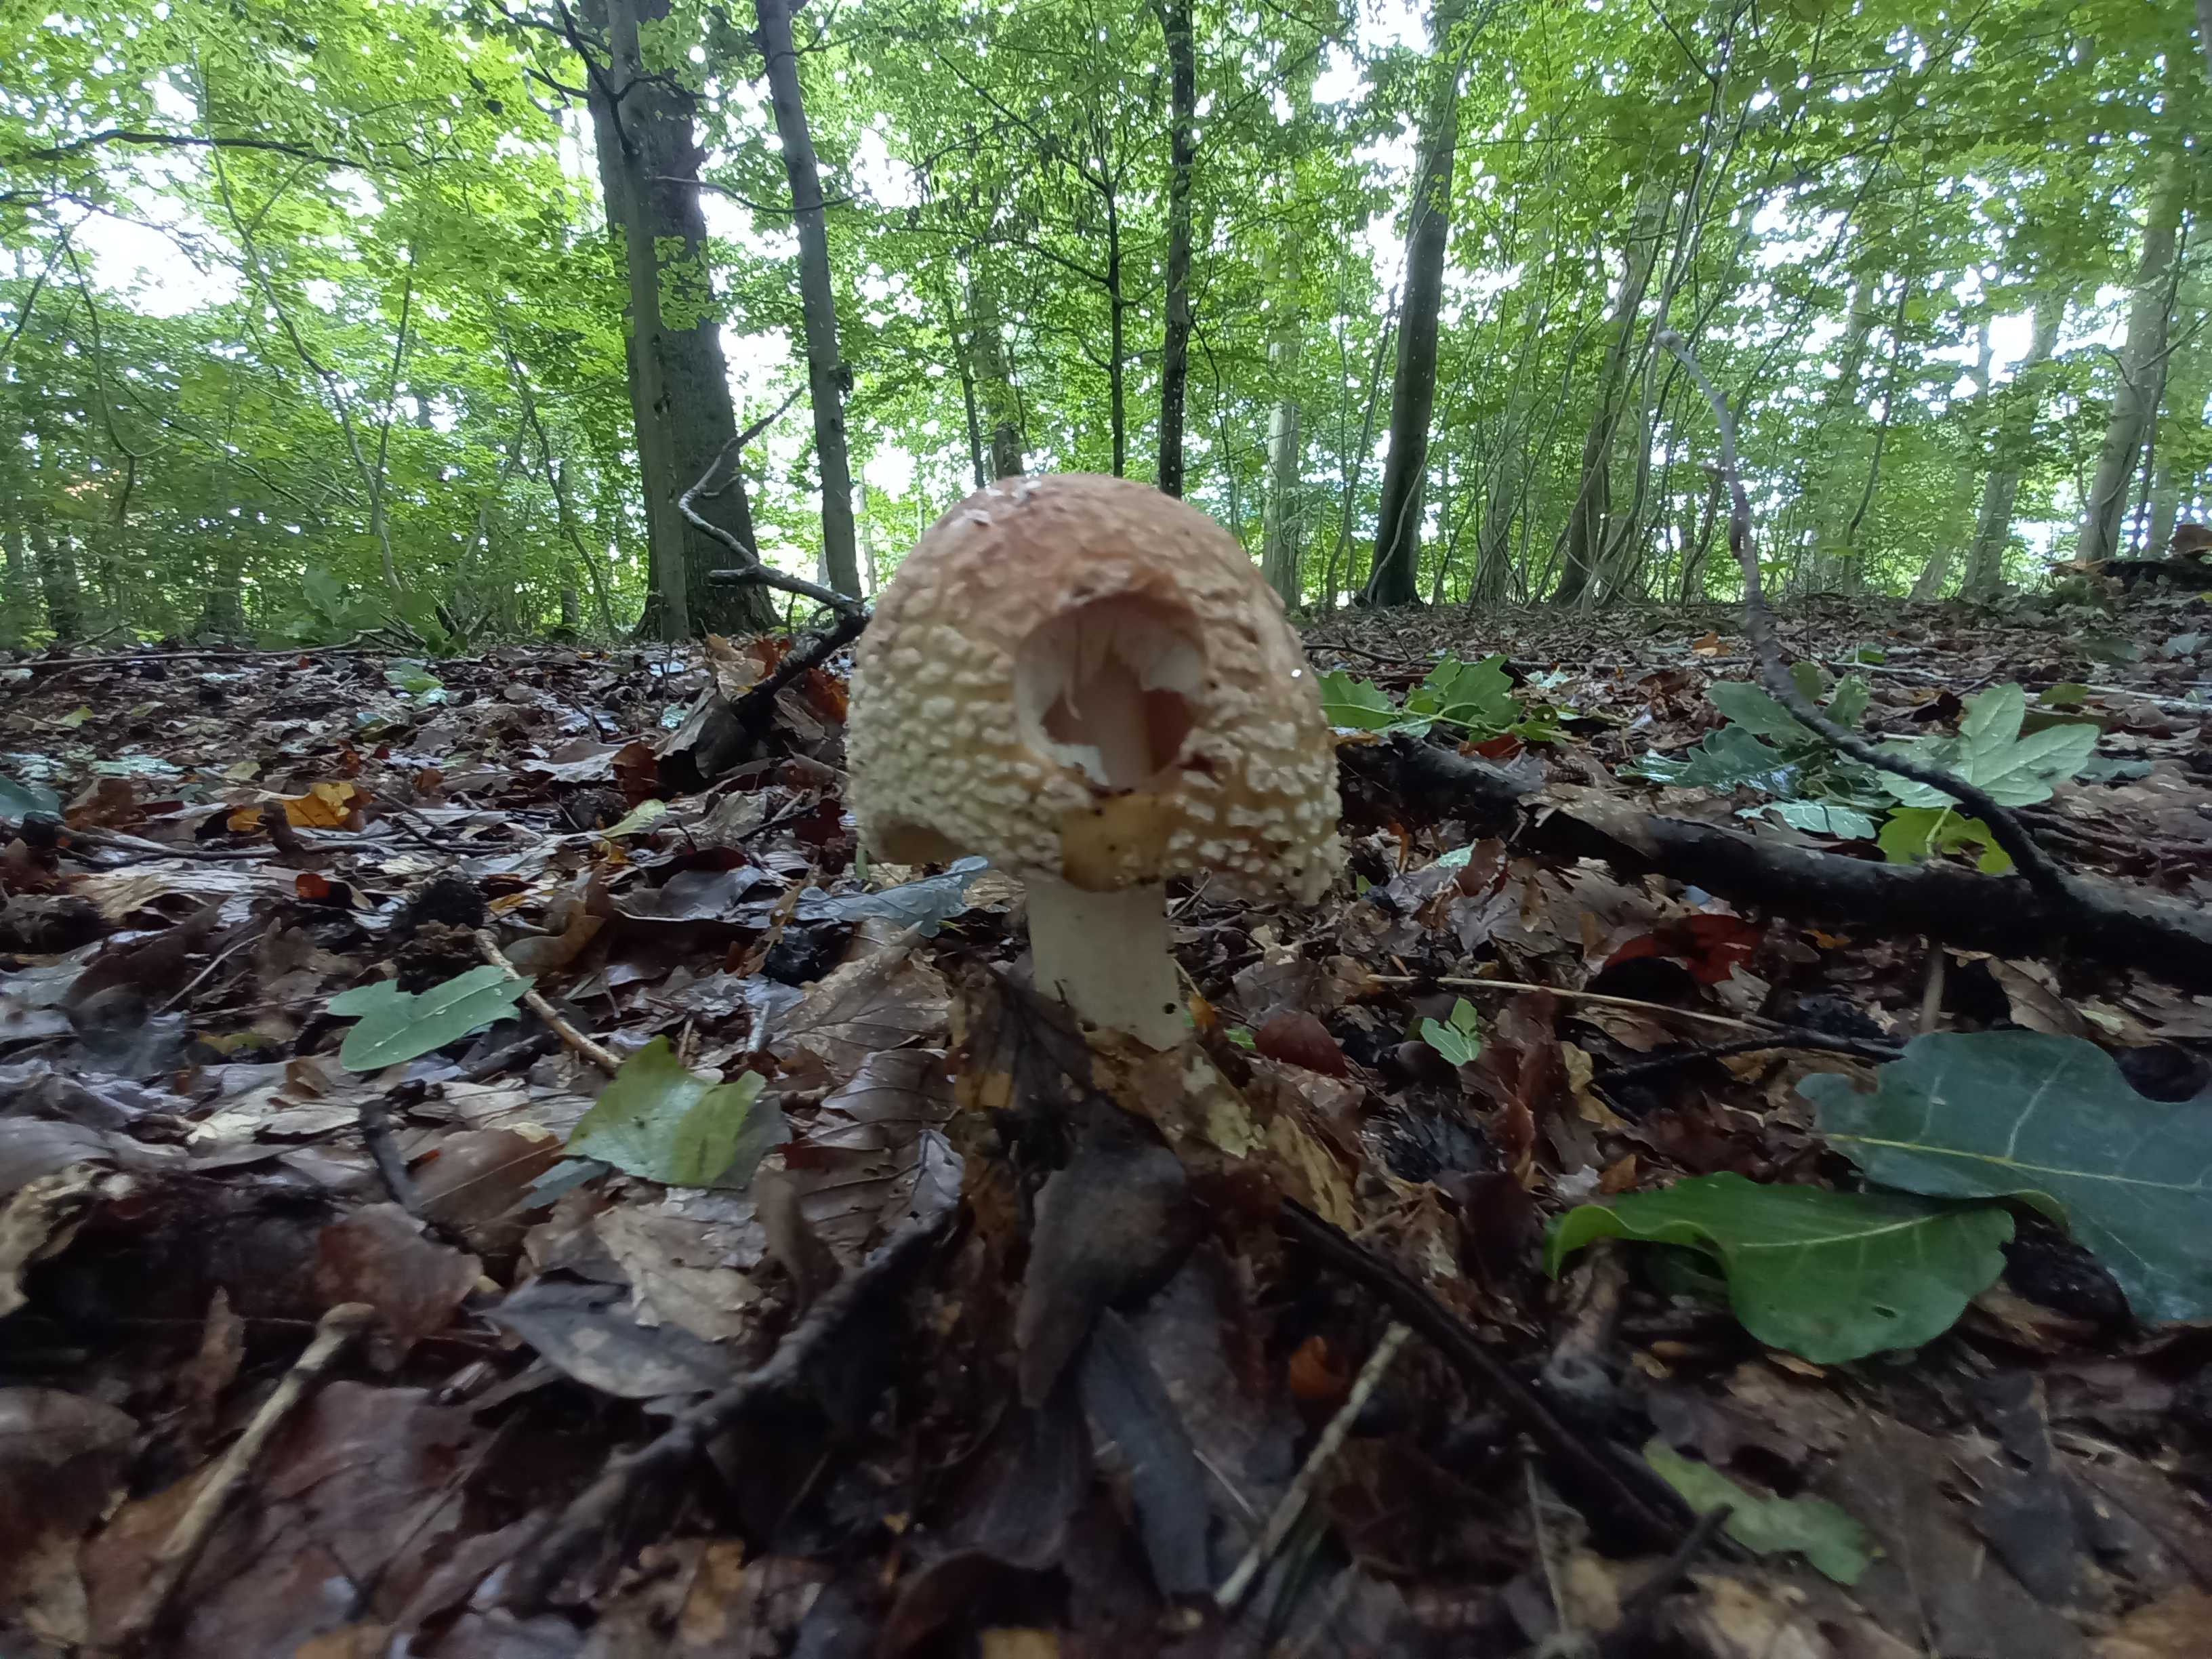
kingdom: Fungi
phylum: Basidiomycota
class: Agaricomycetes
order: Agaricales
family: Amanitaceae
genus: Amanita
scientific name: Amanita rubescens
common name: rødmende fluesvamp
